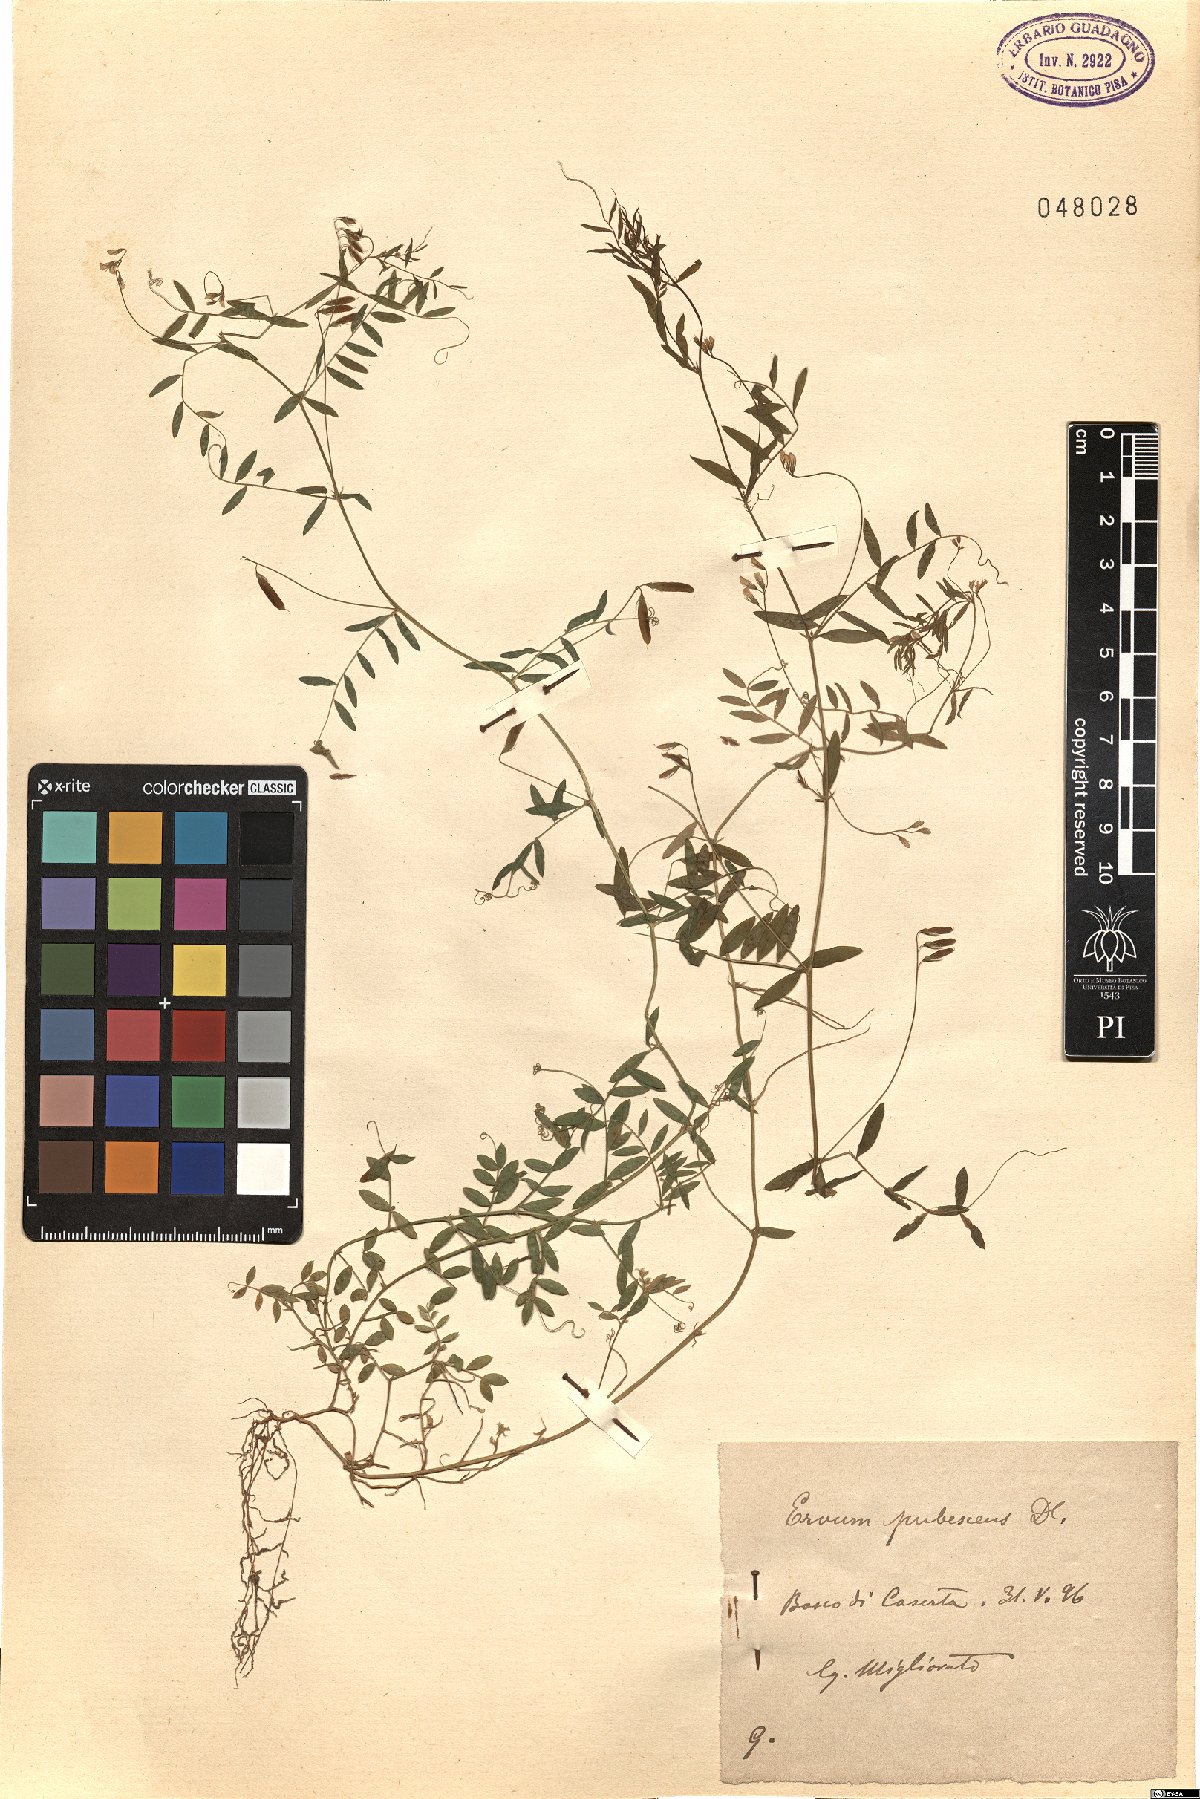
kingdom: Plantae
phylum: Tracheophyta
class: Magnoliopsida
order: Fabales
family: Fabaceae
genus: Vicia
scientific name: Vicia pubescens
